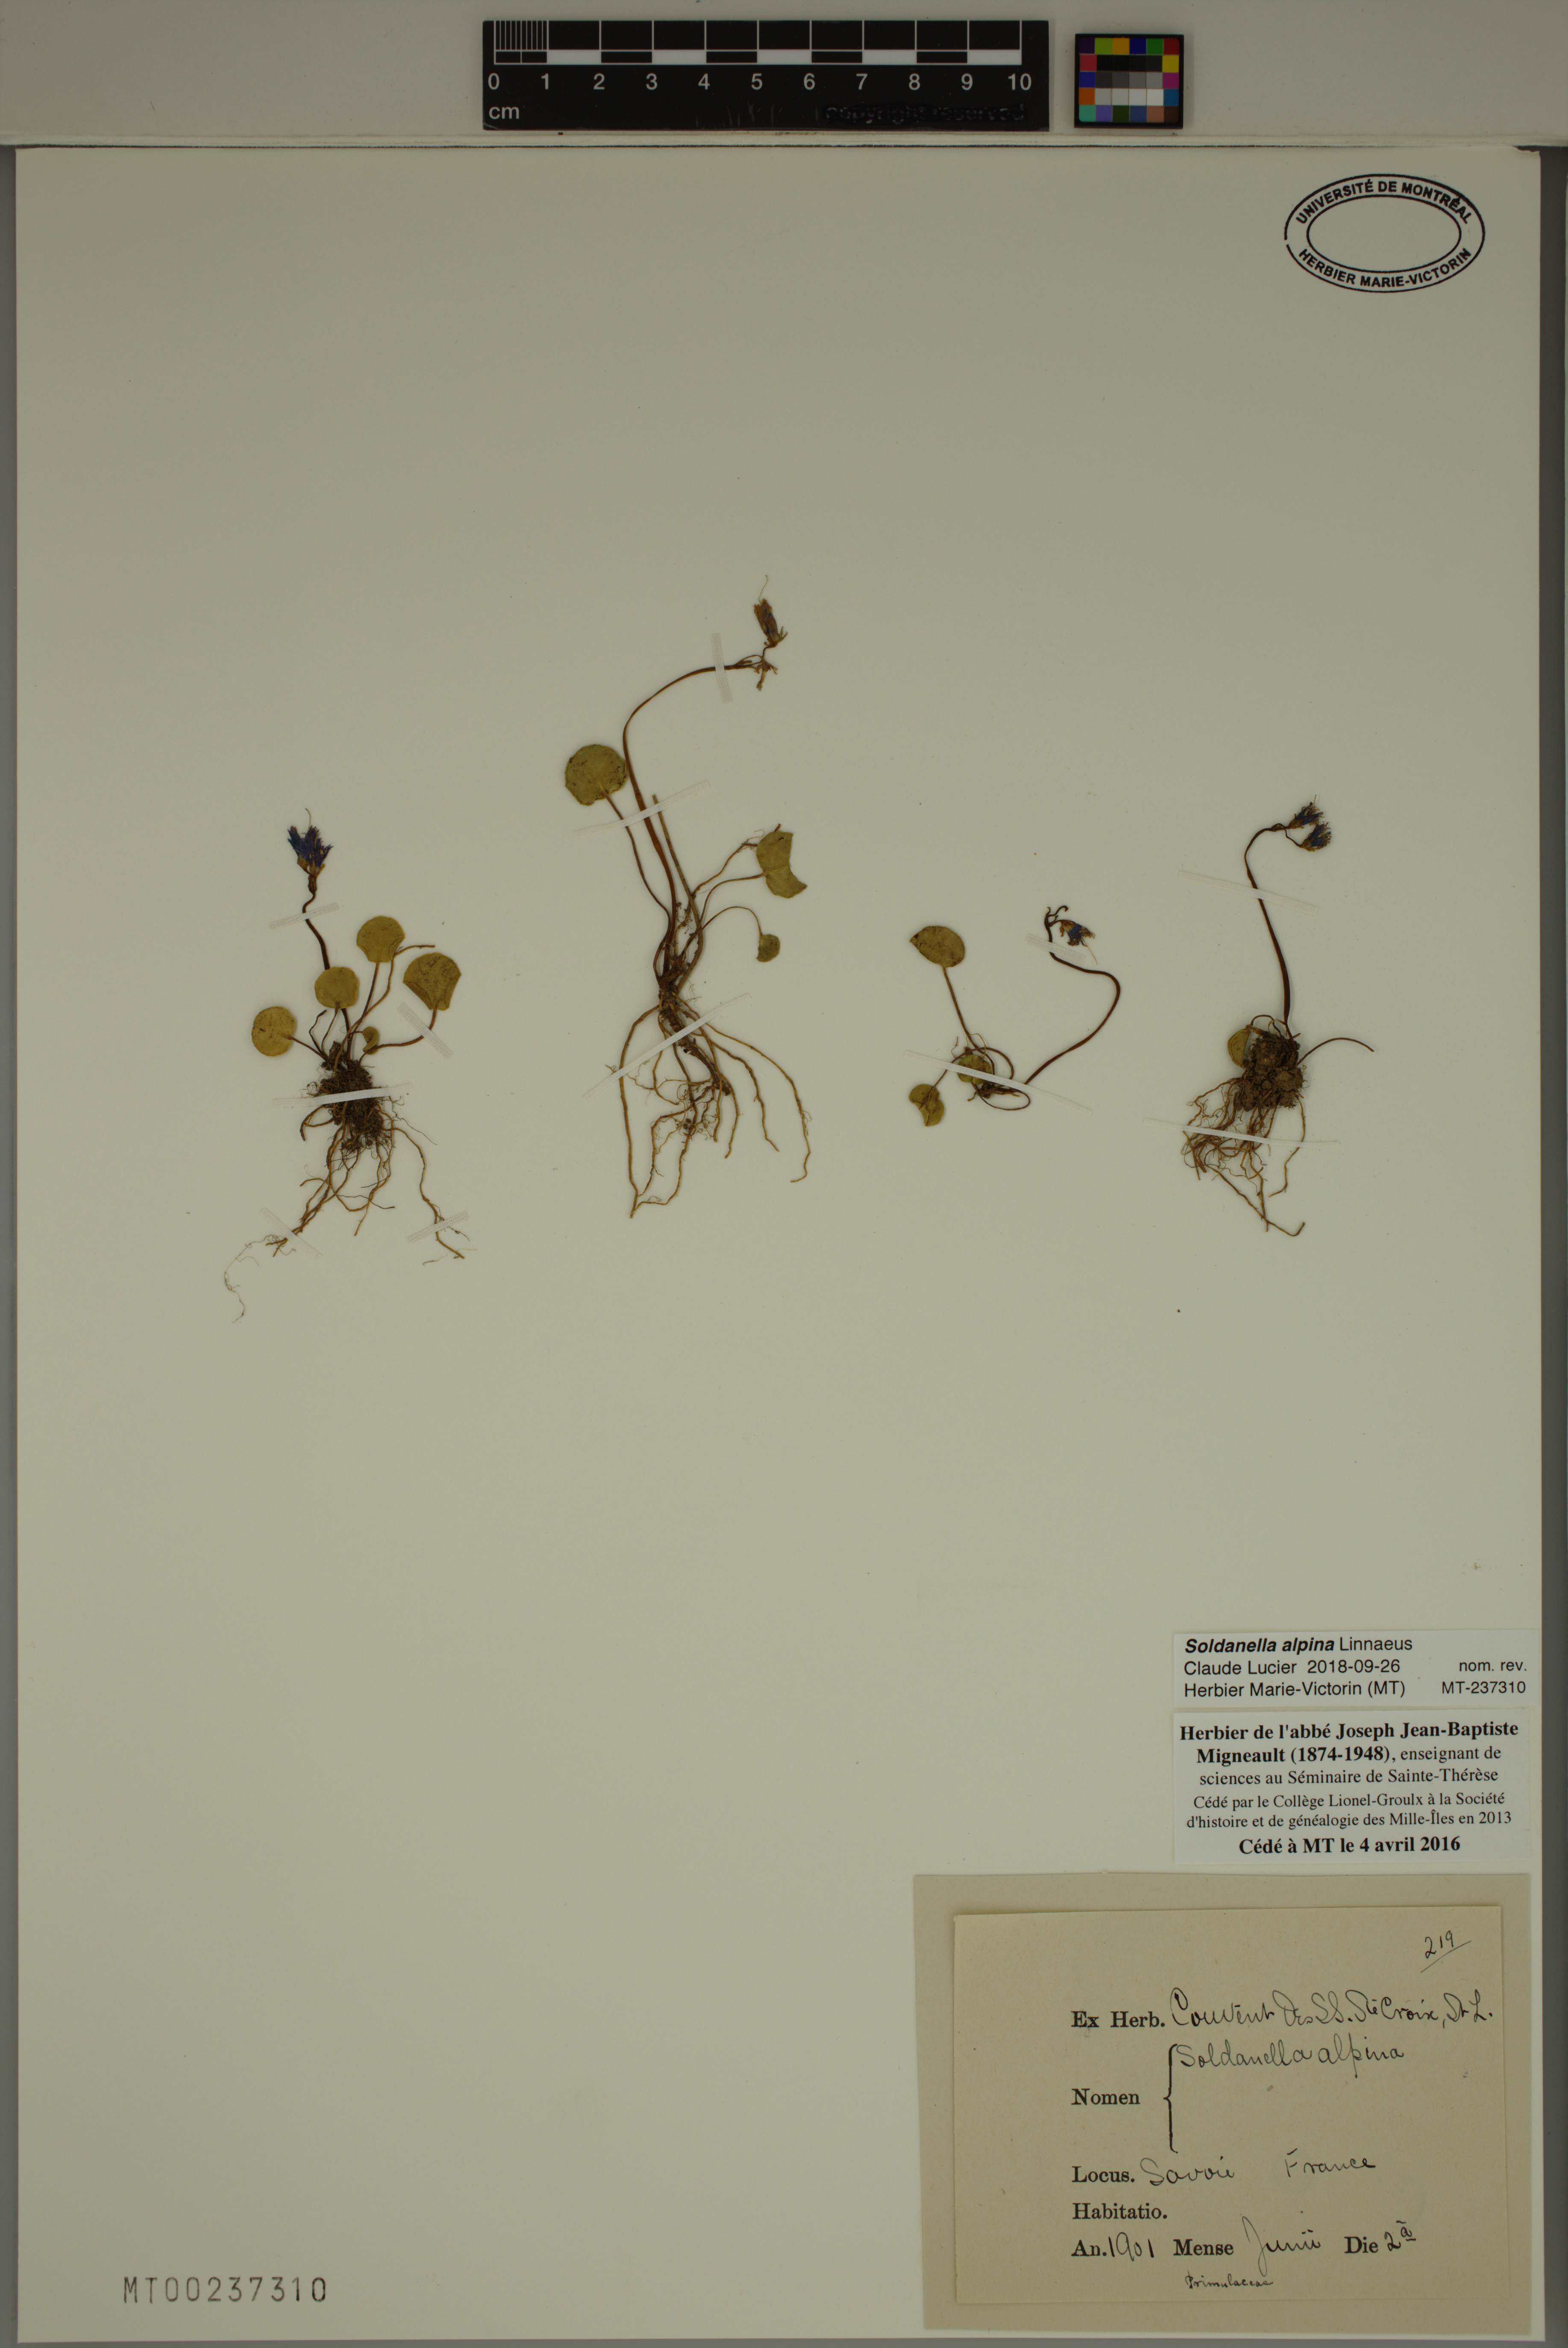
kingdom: Plantae
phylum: Tracheophyta
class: Magnoliopsida
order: Ericales
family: Primulaceae
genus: Soldanella
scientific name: Soldanella alpina
